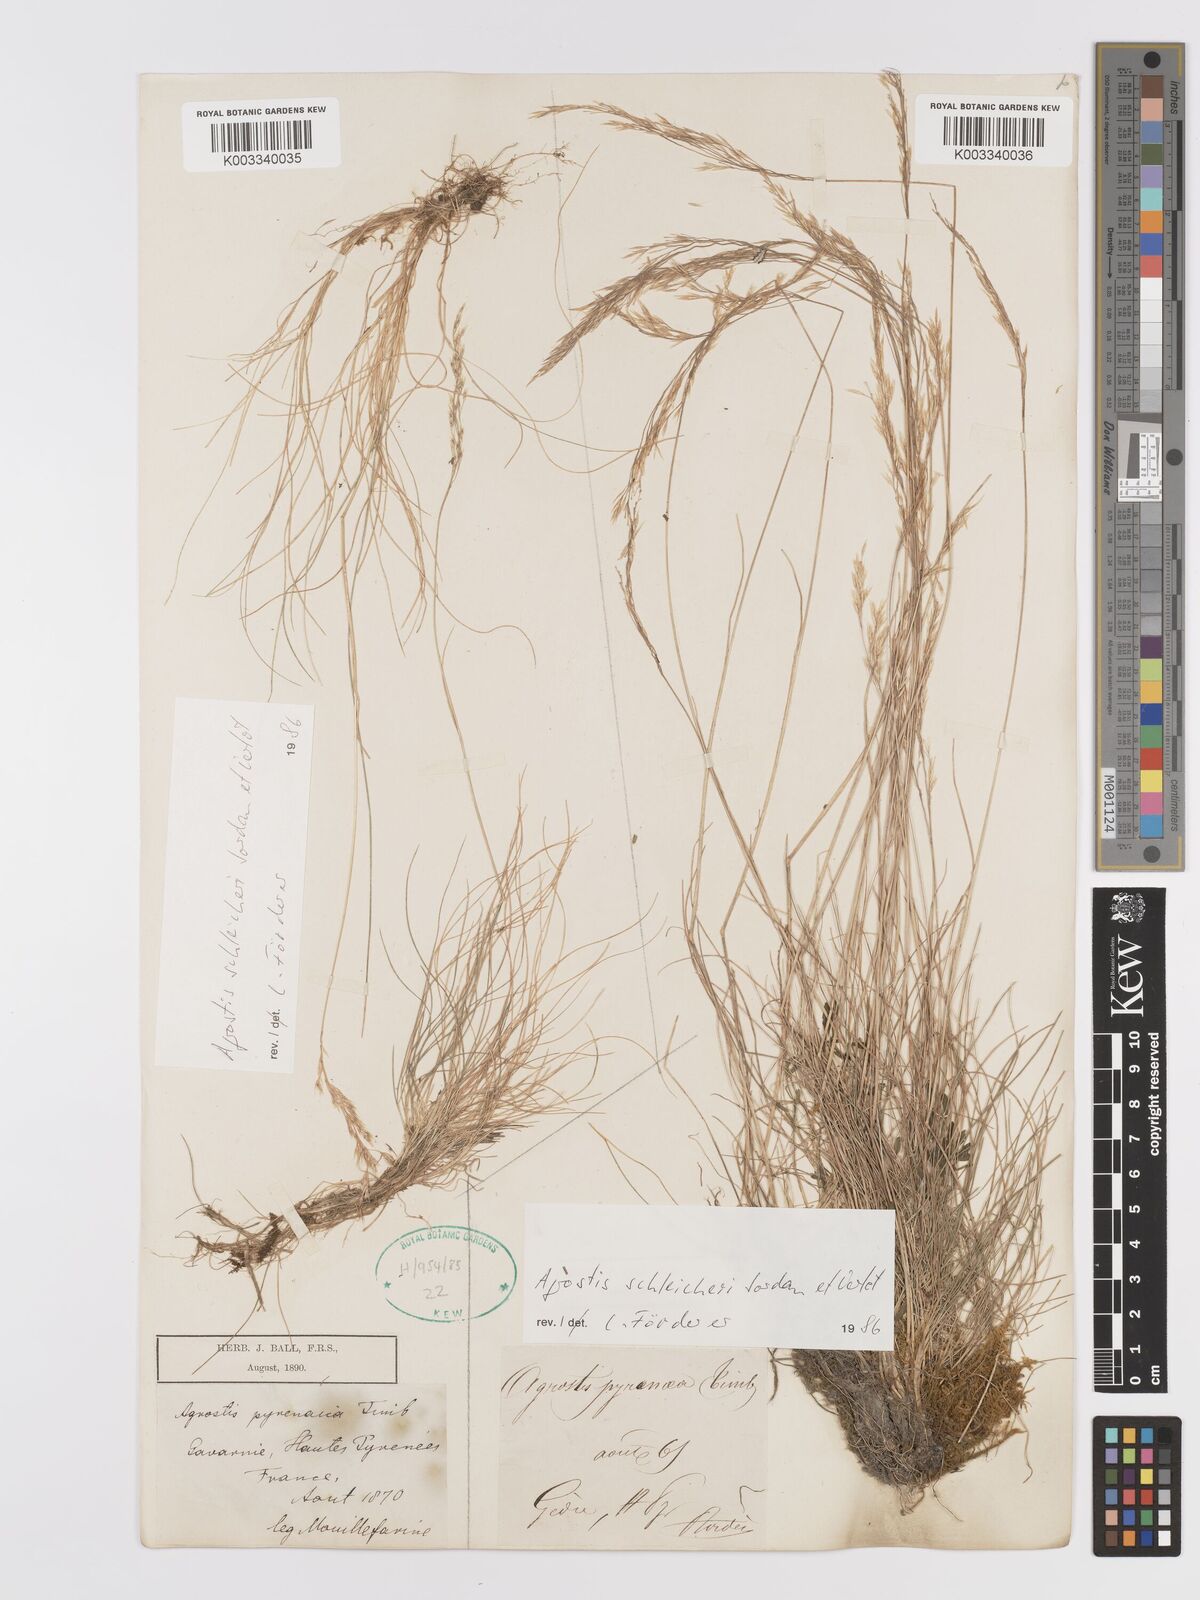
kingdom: Plantae
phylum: Tracheophyta
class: Liliopsida
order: Poales
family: Poaceae
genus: Alpagrostis
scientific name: Alpagrostis schleicheri
